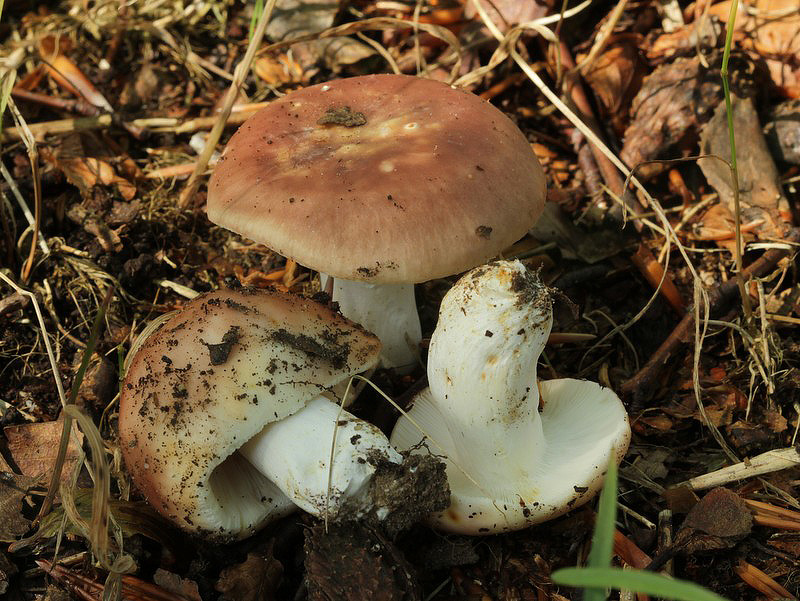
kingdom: Fungi
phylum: Basidiomycota
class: Agaricomycetes
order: Russulales
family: Russulaceae
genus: Russula
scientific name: Russula vesca
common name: spiselig skørhat
